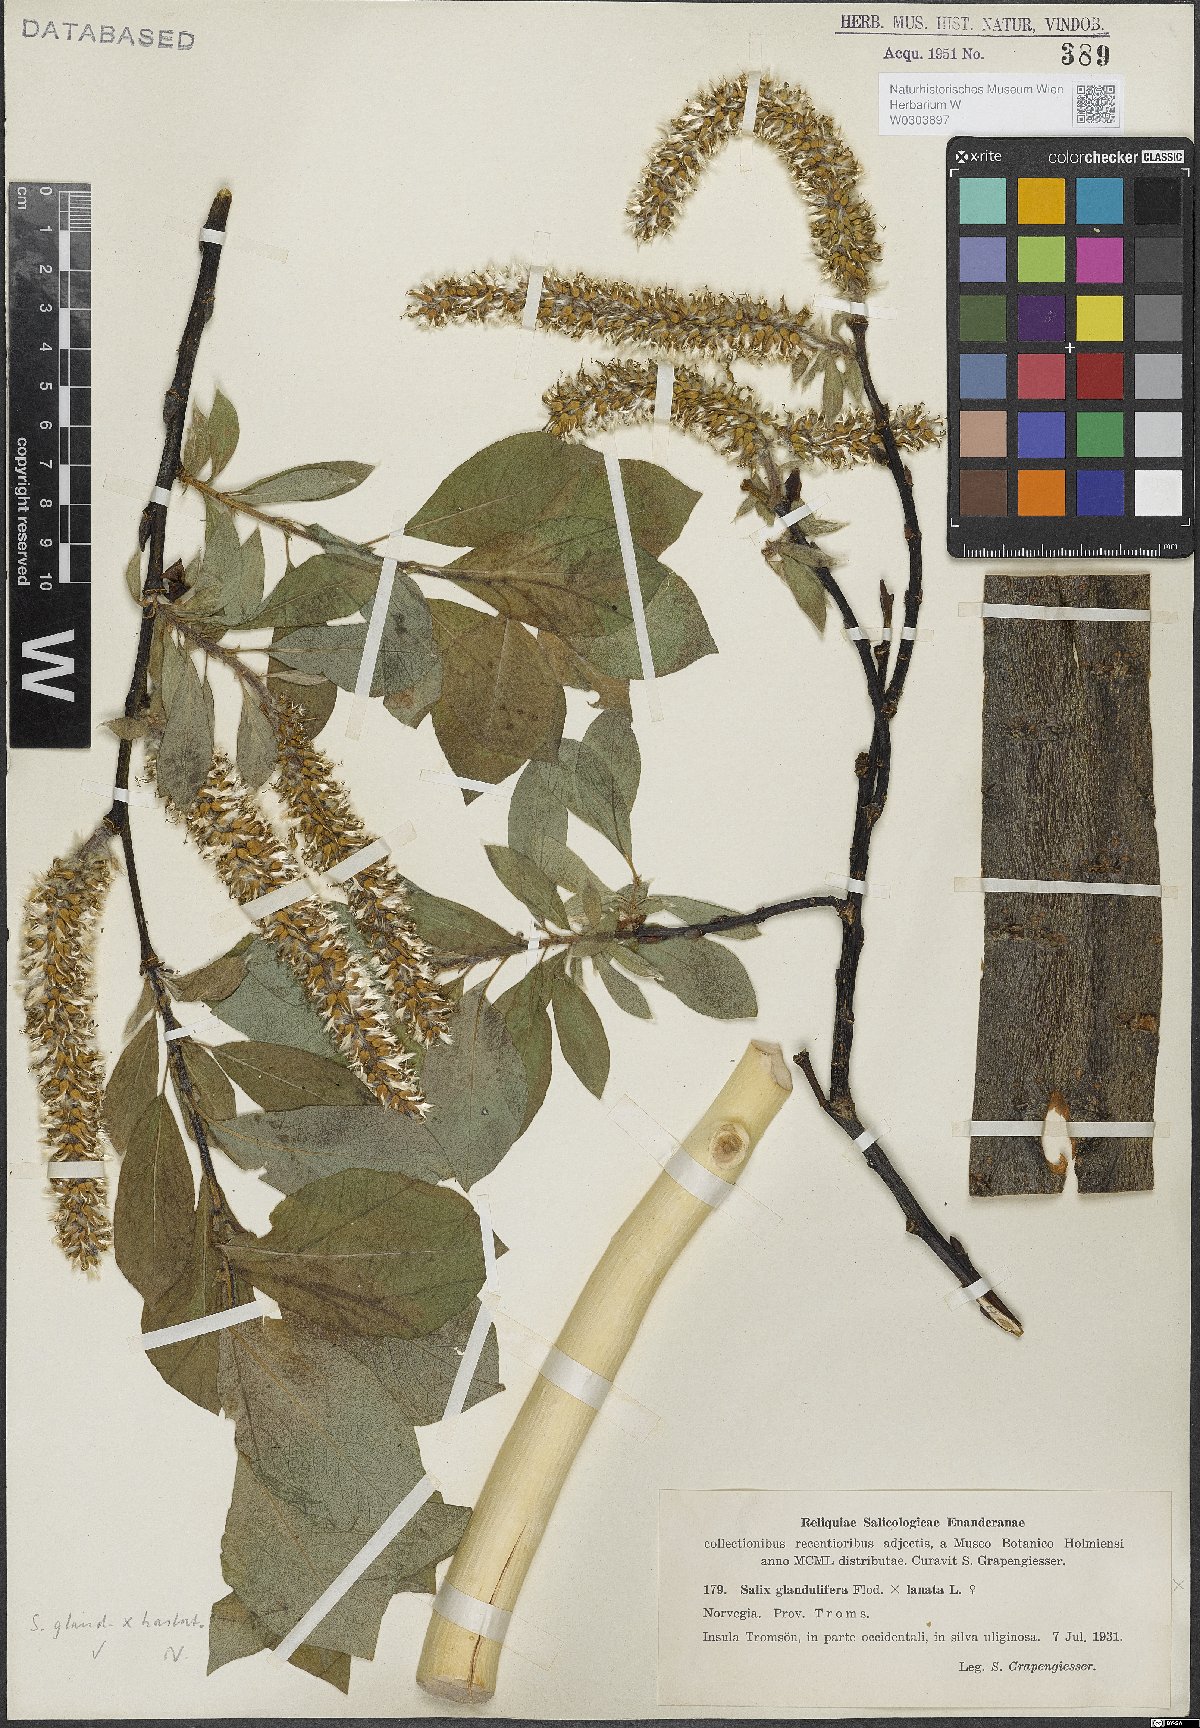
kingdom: Plantae
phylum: Tracheophyta
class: Magnoliopsida
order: Malpighiales
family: Salicaceae
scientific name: Salicaceae
